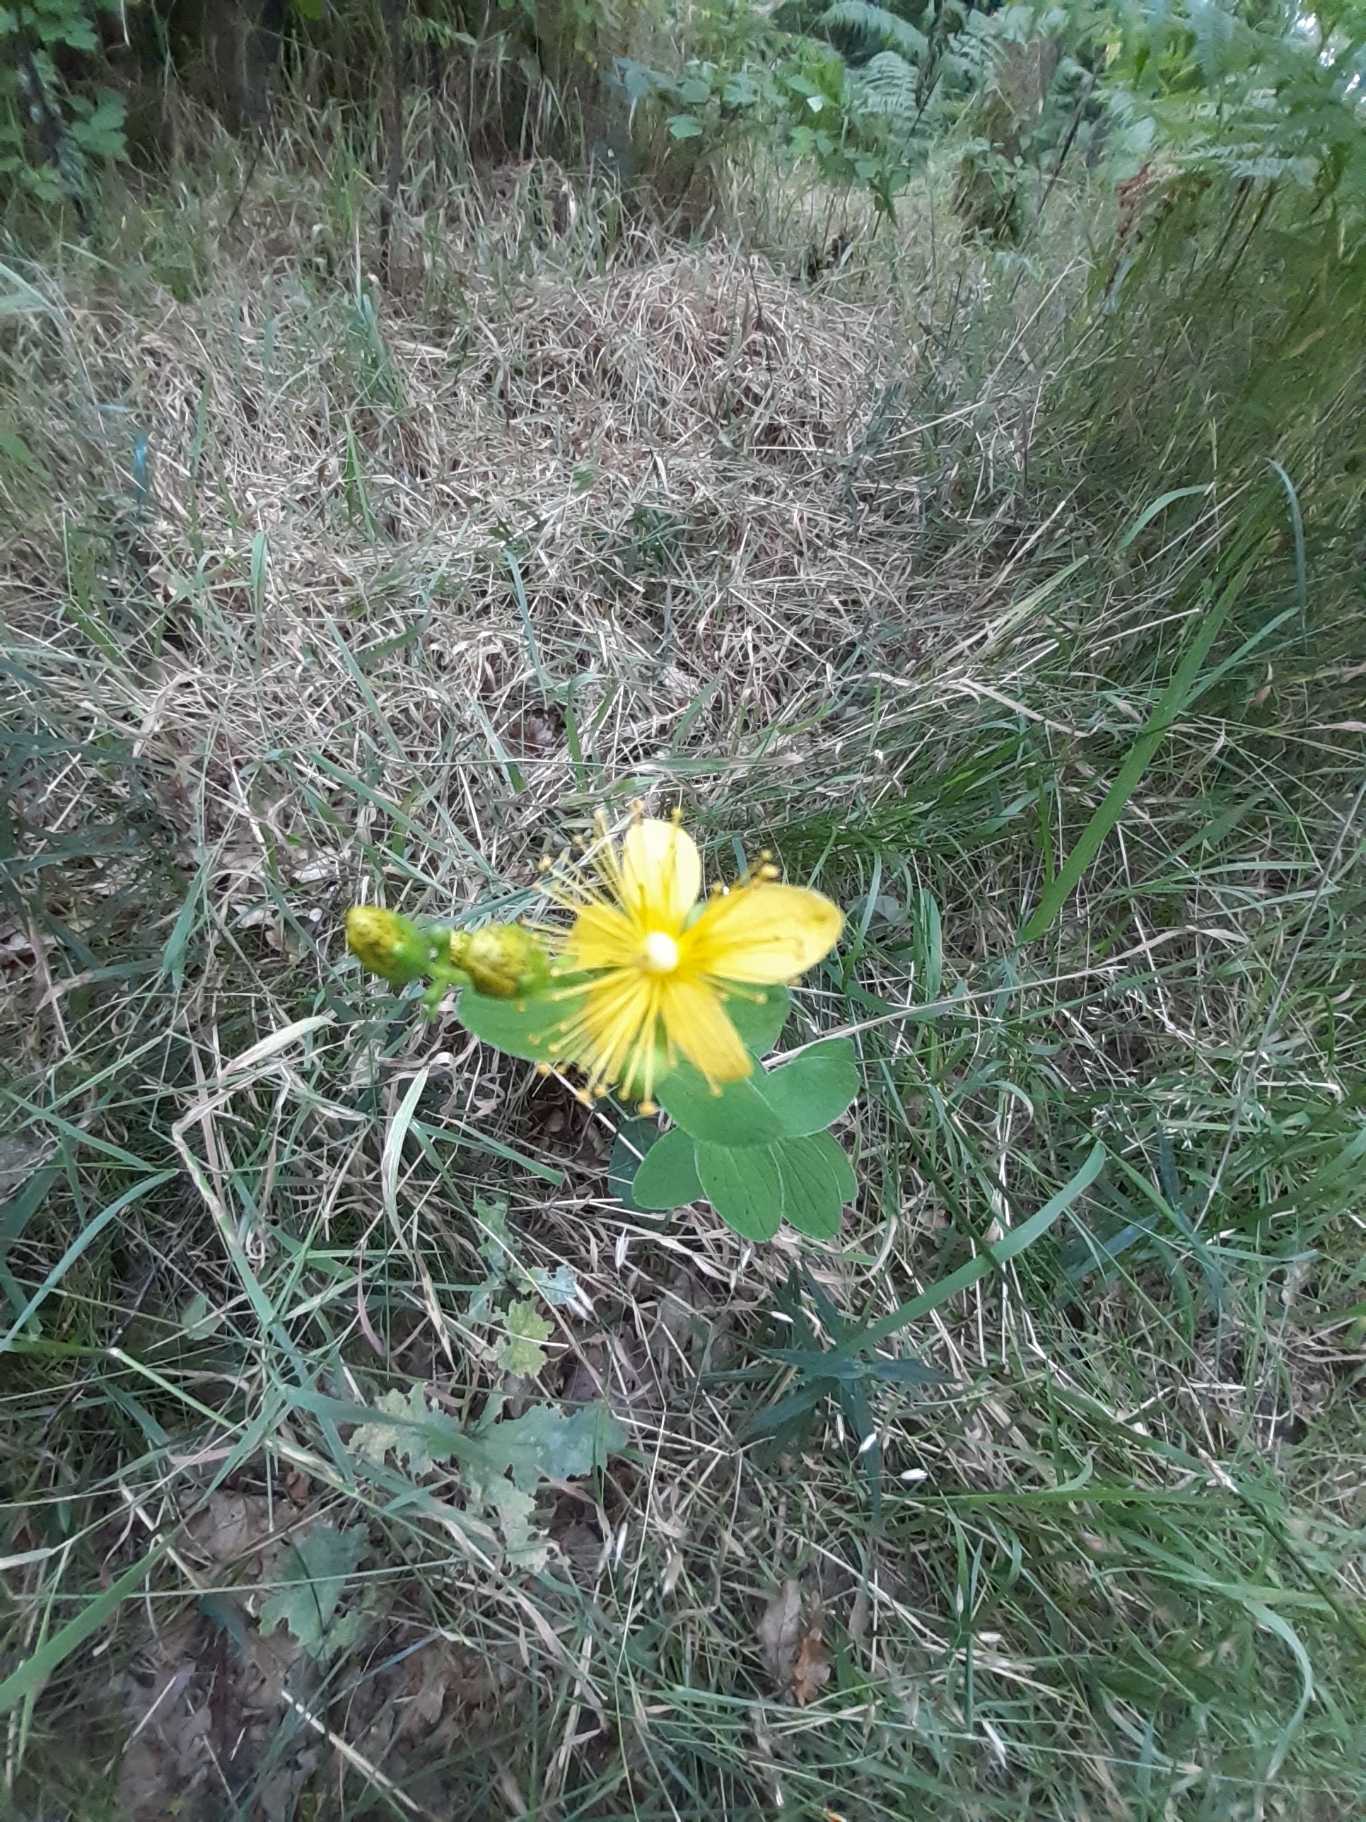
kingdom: Plantae
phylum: Tracheophyta
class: Magnoliopsida
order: Malpighiales
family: Hypericaceae
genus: Hypericum
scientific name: Hypericum maculatum
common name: Kantet perikon
